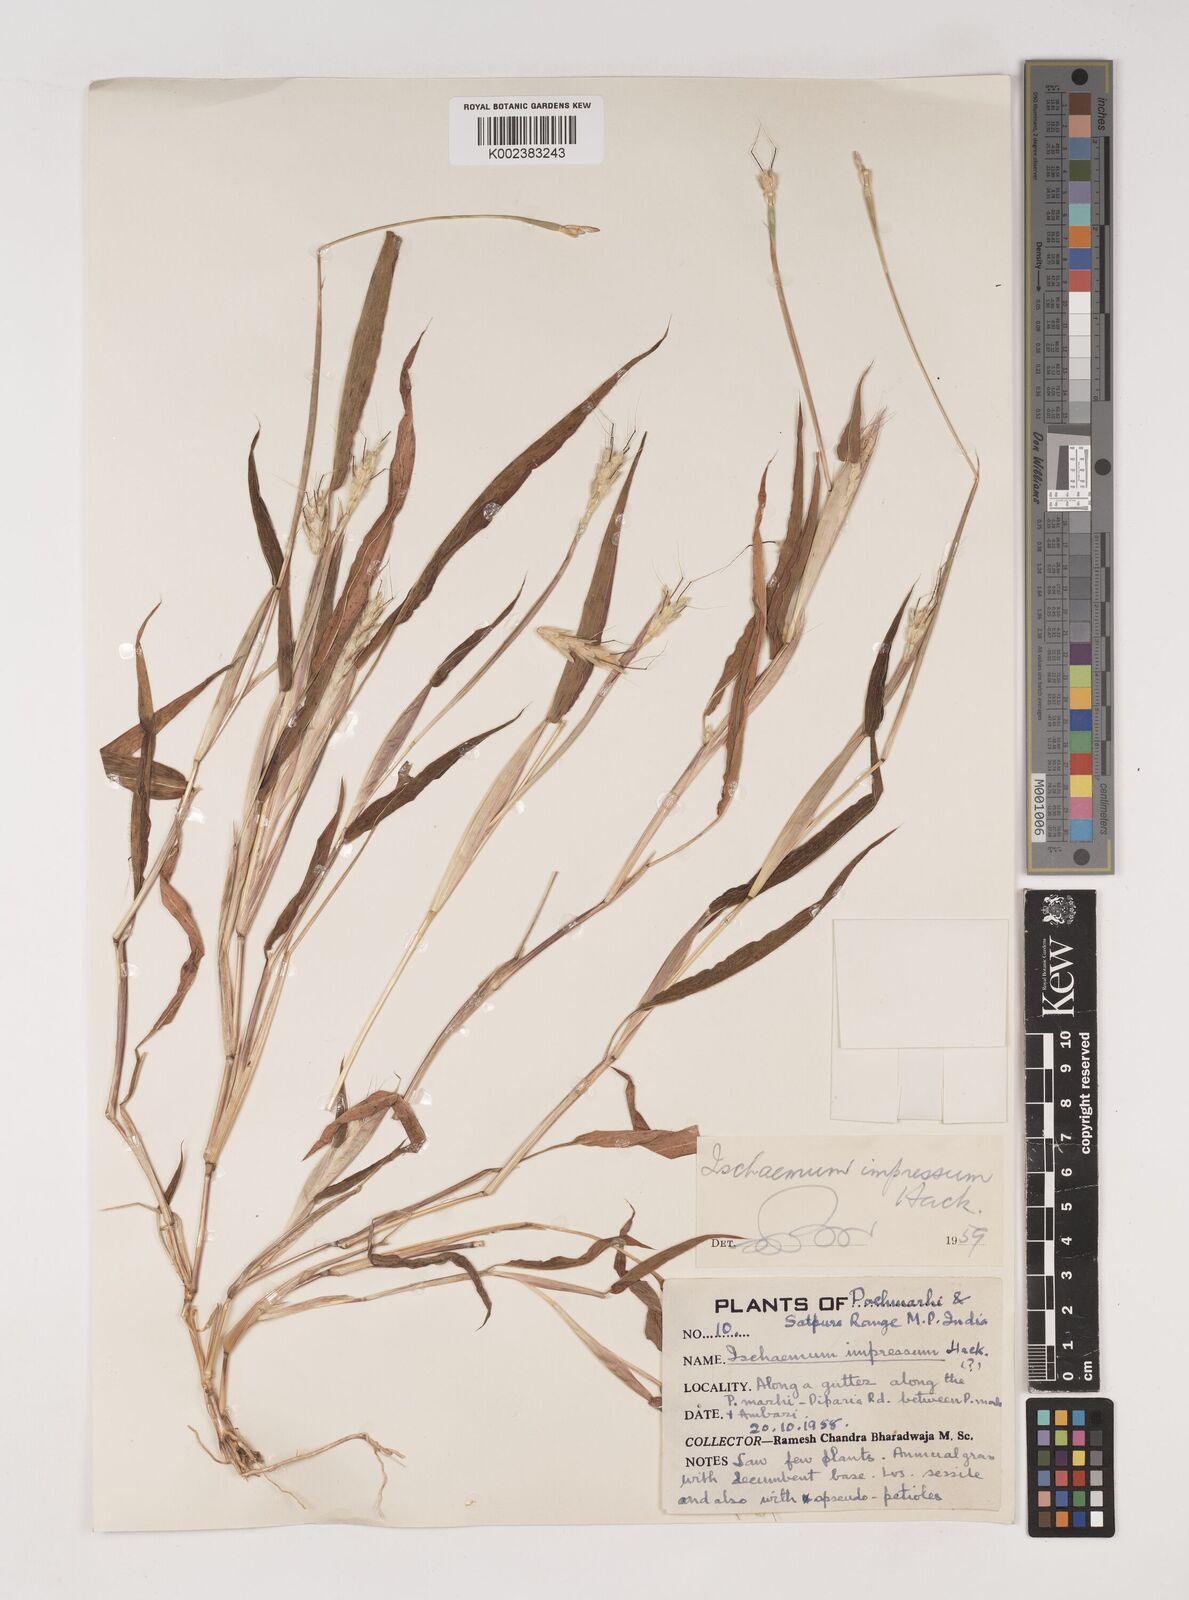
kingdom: Plantae
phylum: Tracheophyta
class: Liliopsida
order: Poales
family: Poaceae
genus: Ischaemum
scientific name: Ischaemum impressum
